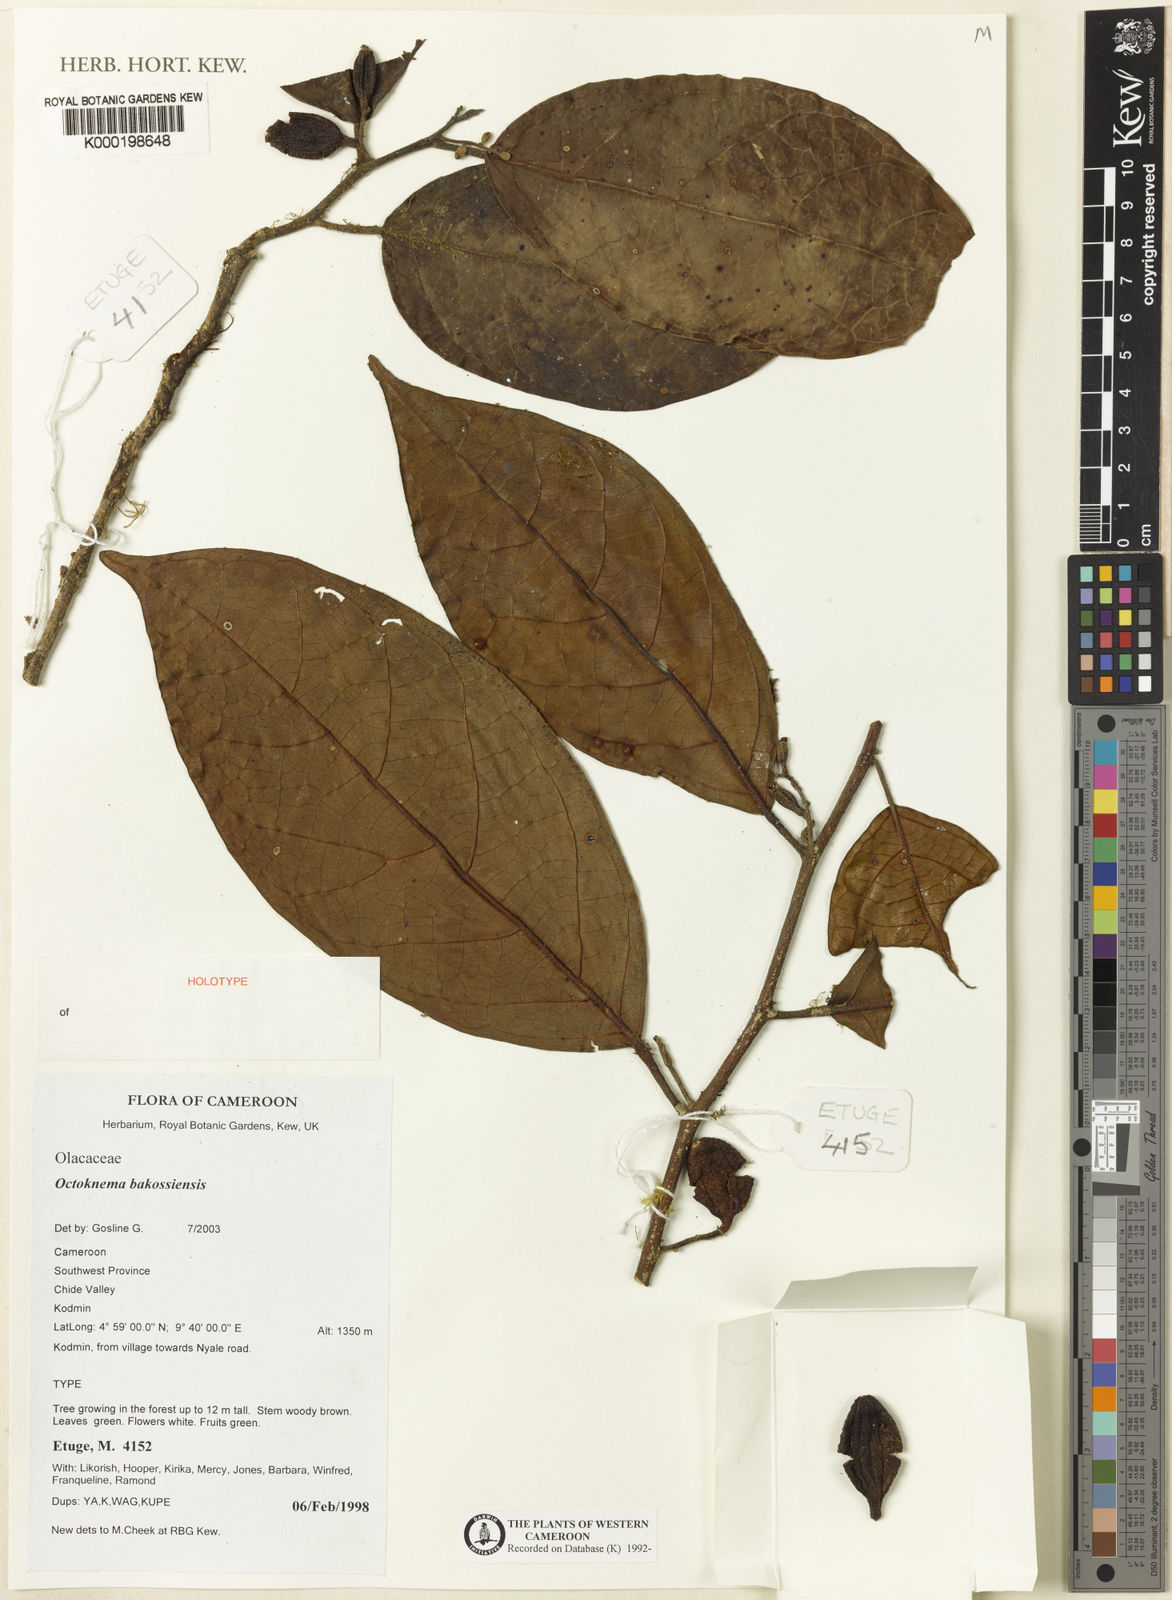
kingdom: Plantae
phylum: Tracheophyta
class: Magnoliopsida
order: Santalales
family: Octoknemaceae
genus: Octoknema
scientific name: Octoknema bakossiensis
